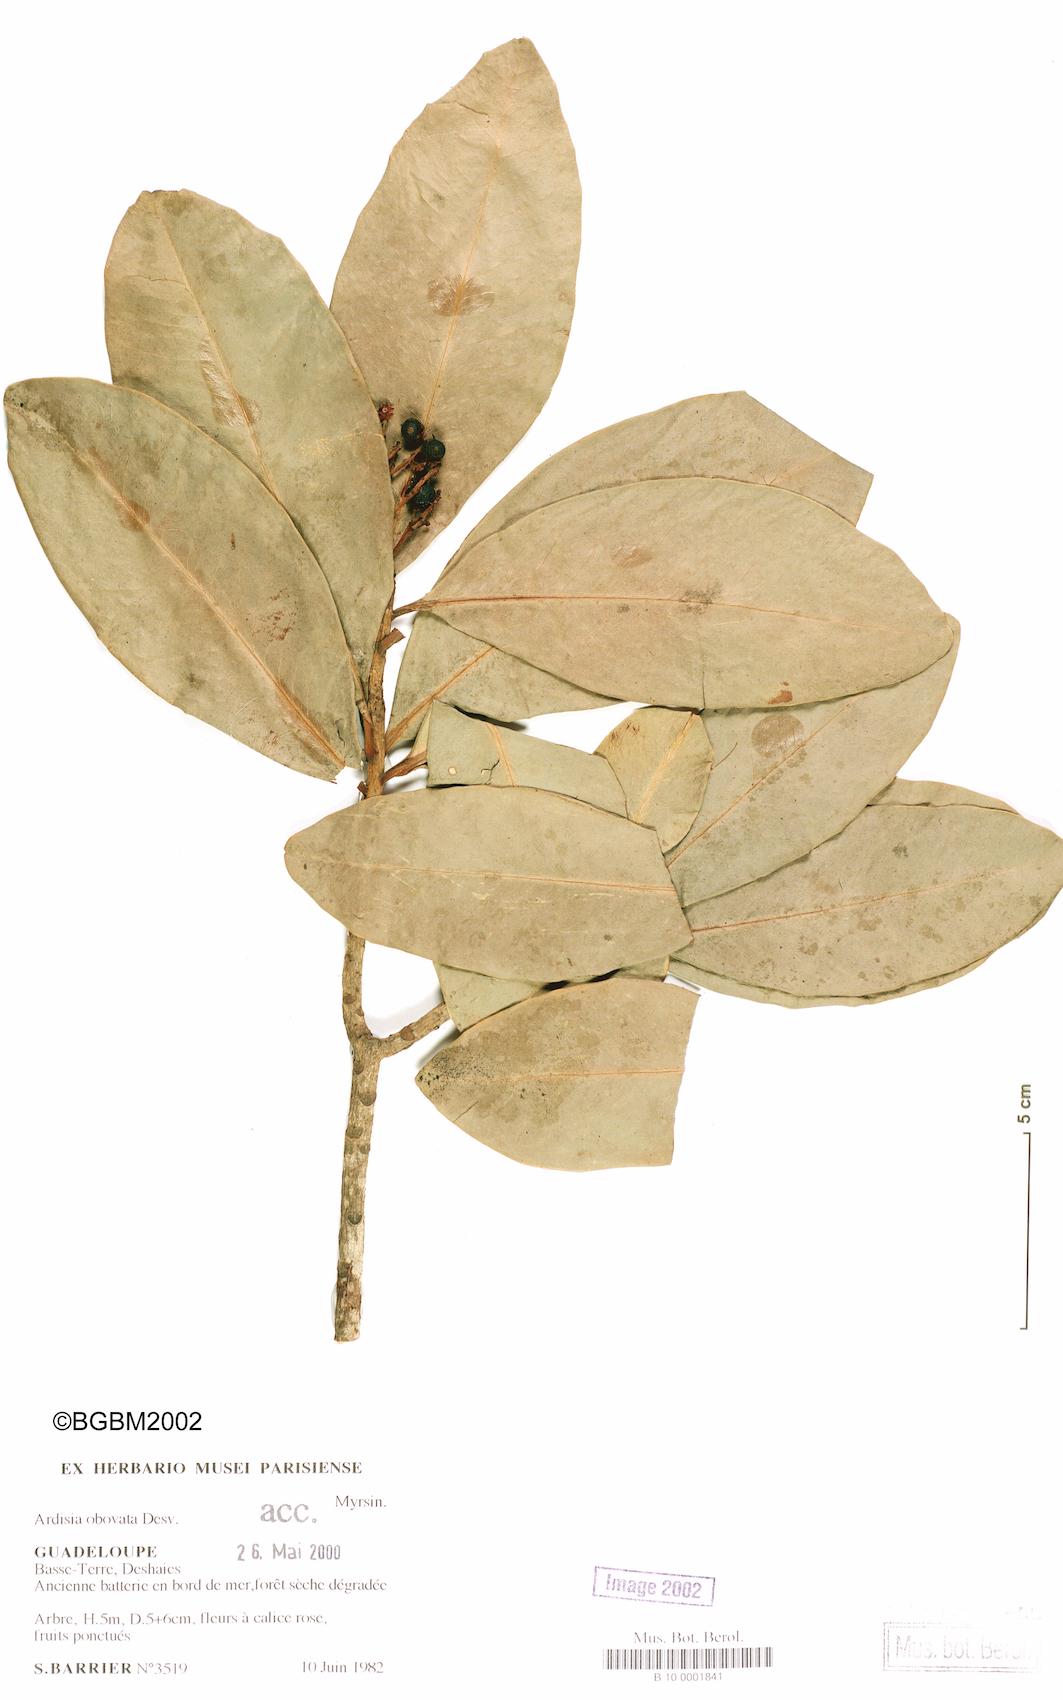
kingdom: Plantae
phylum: Tracheophyta
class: Magnoliopsida
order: Ericales
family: Primulaceae
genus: Ardisia
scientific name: Ardisia obovata
